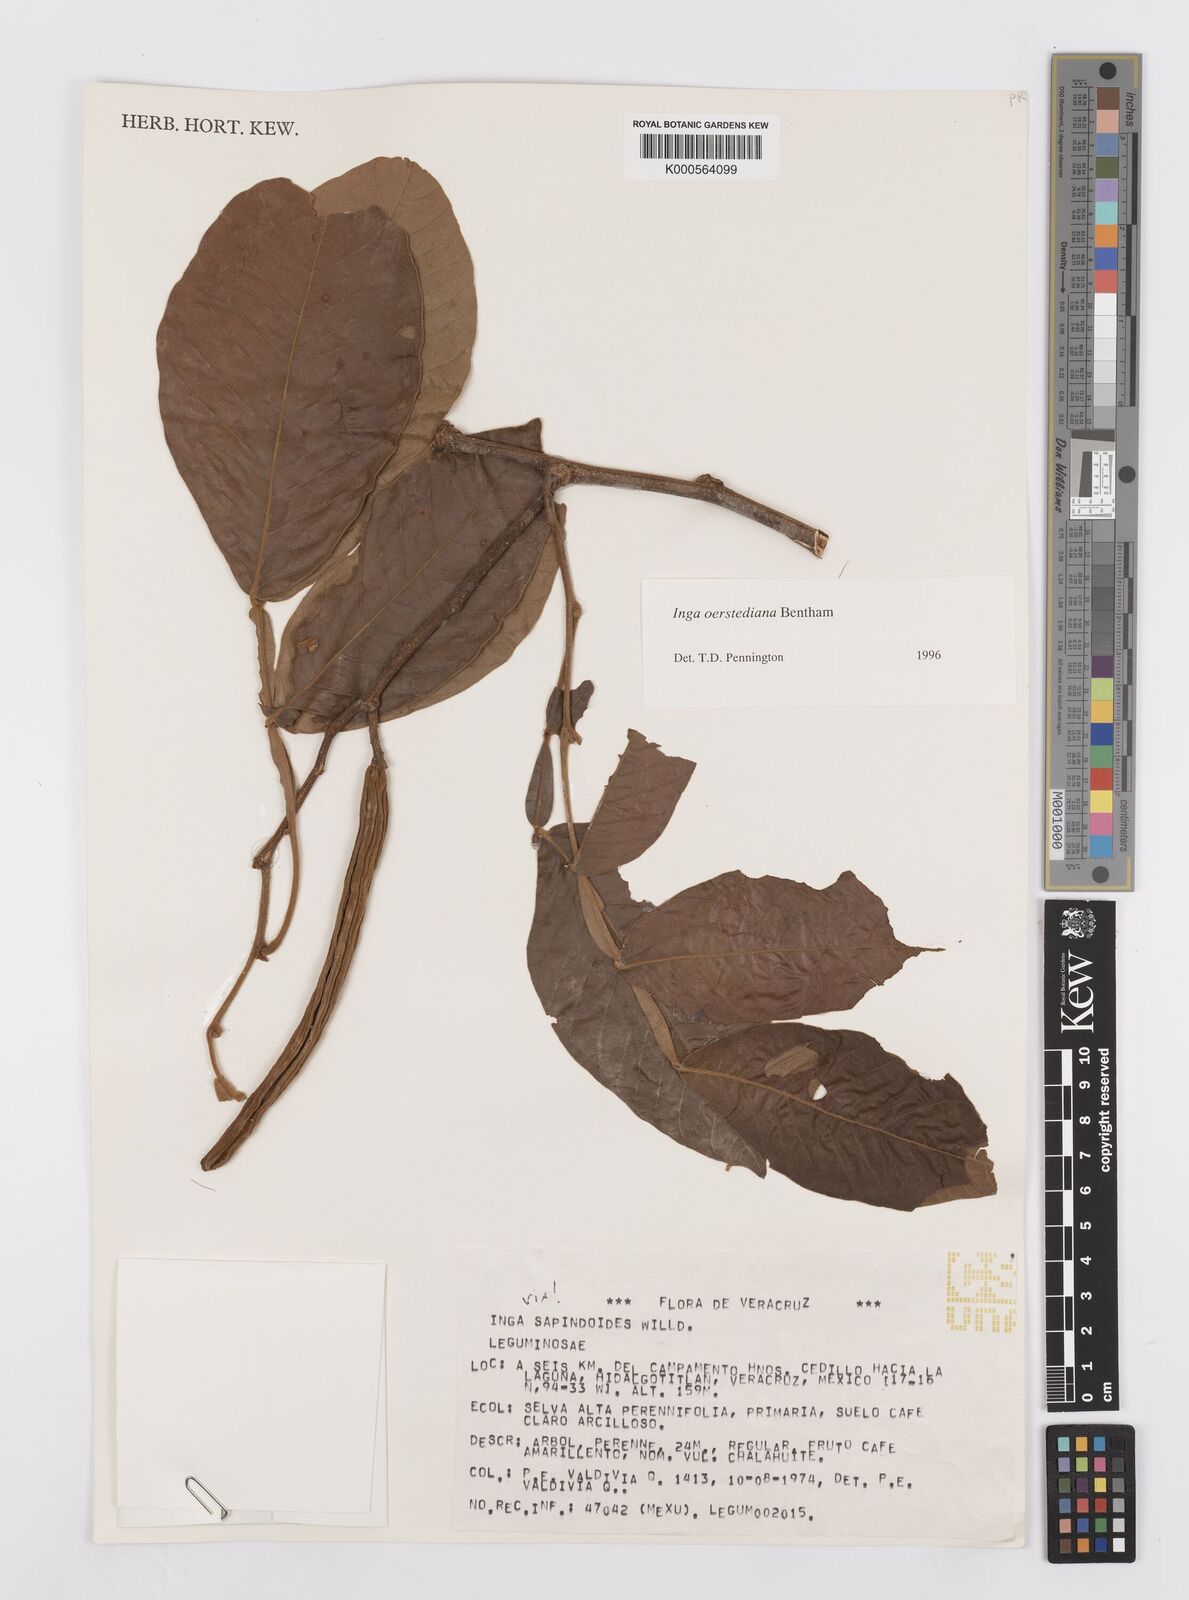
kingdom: Plantae
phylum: Tracheophyta
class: Magnoliopsida
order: Fabales
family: Fabaceae
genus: Inga
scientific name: Inga oerstediana
